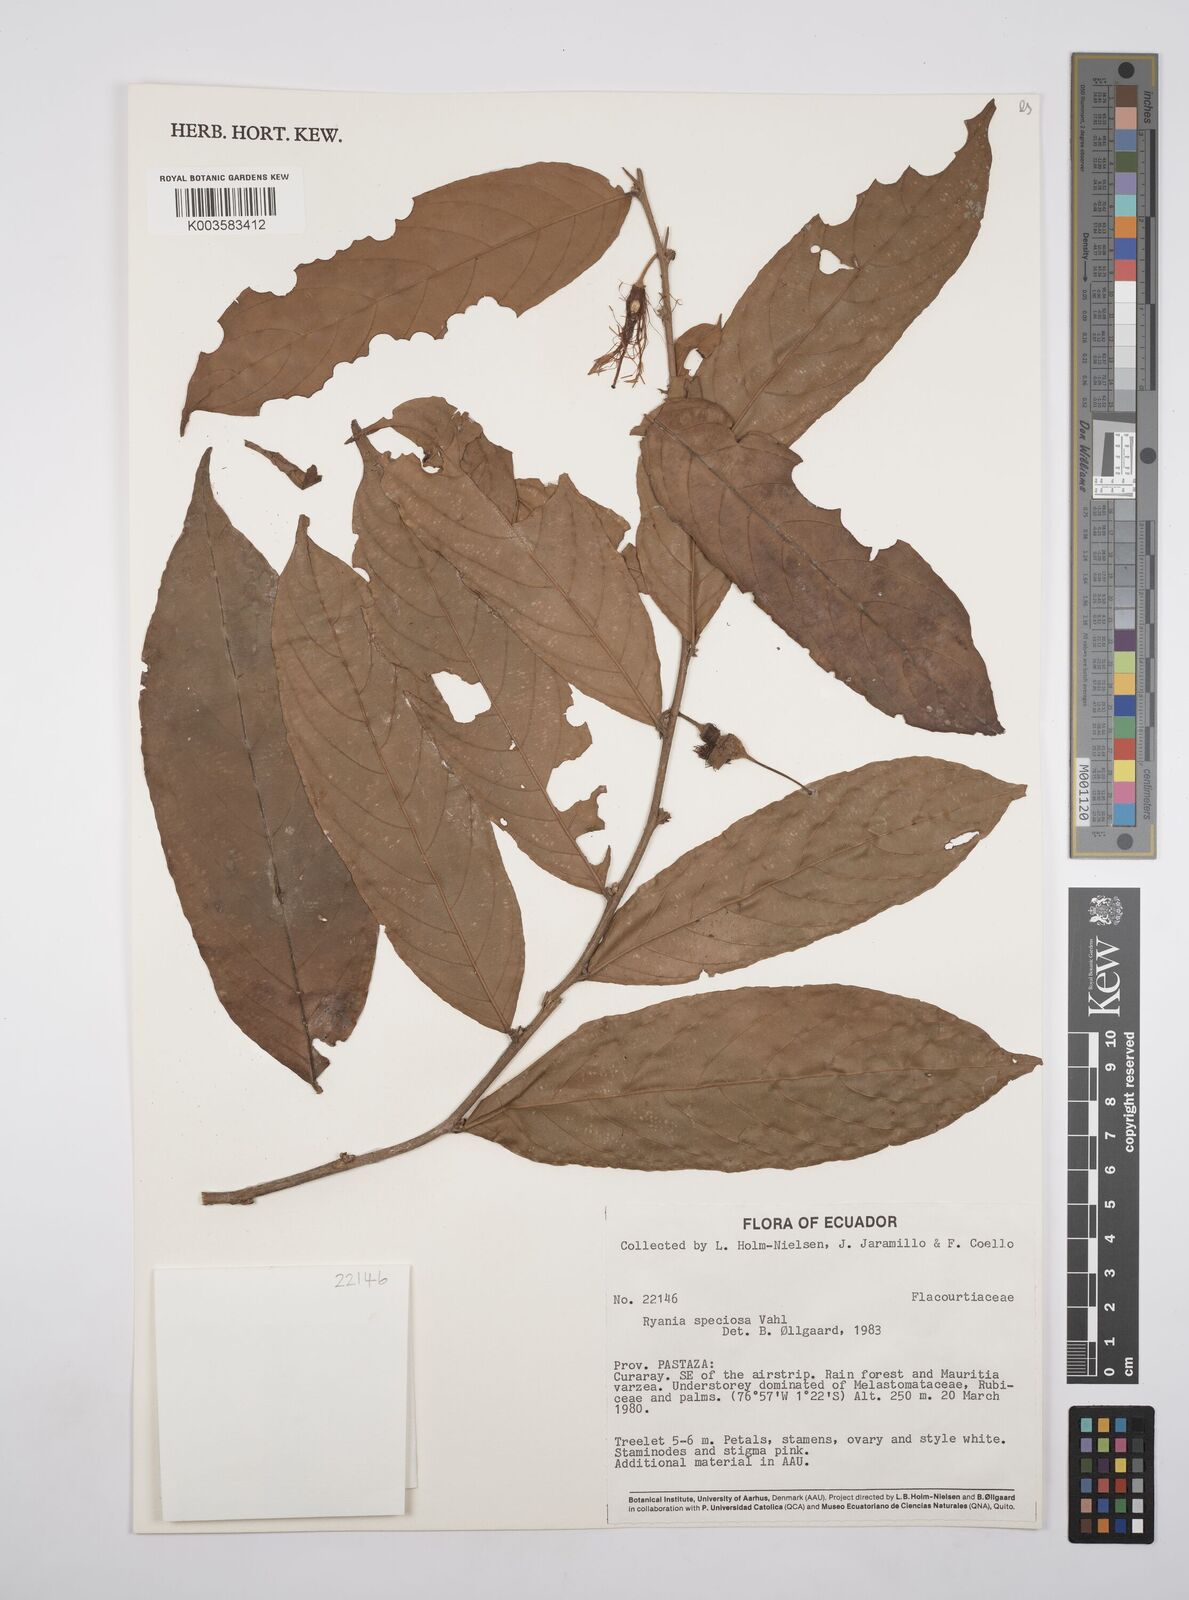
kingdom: Plantae
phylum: Tracheophyta
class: Magnoliopsida
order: Malpighiales
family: Salicaceae
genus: Ryania
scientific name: Ryania speciosa
